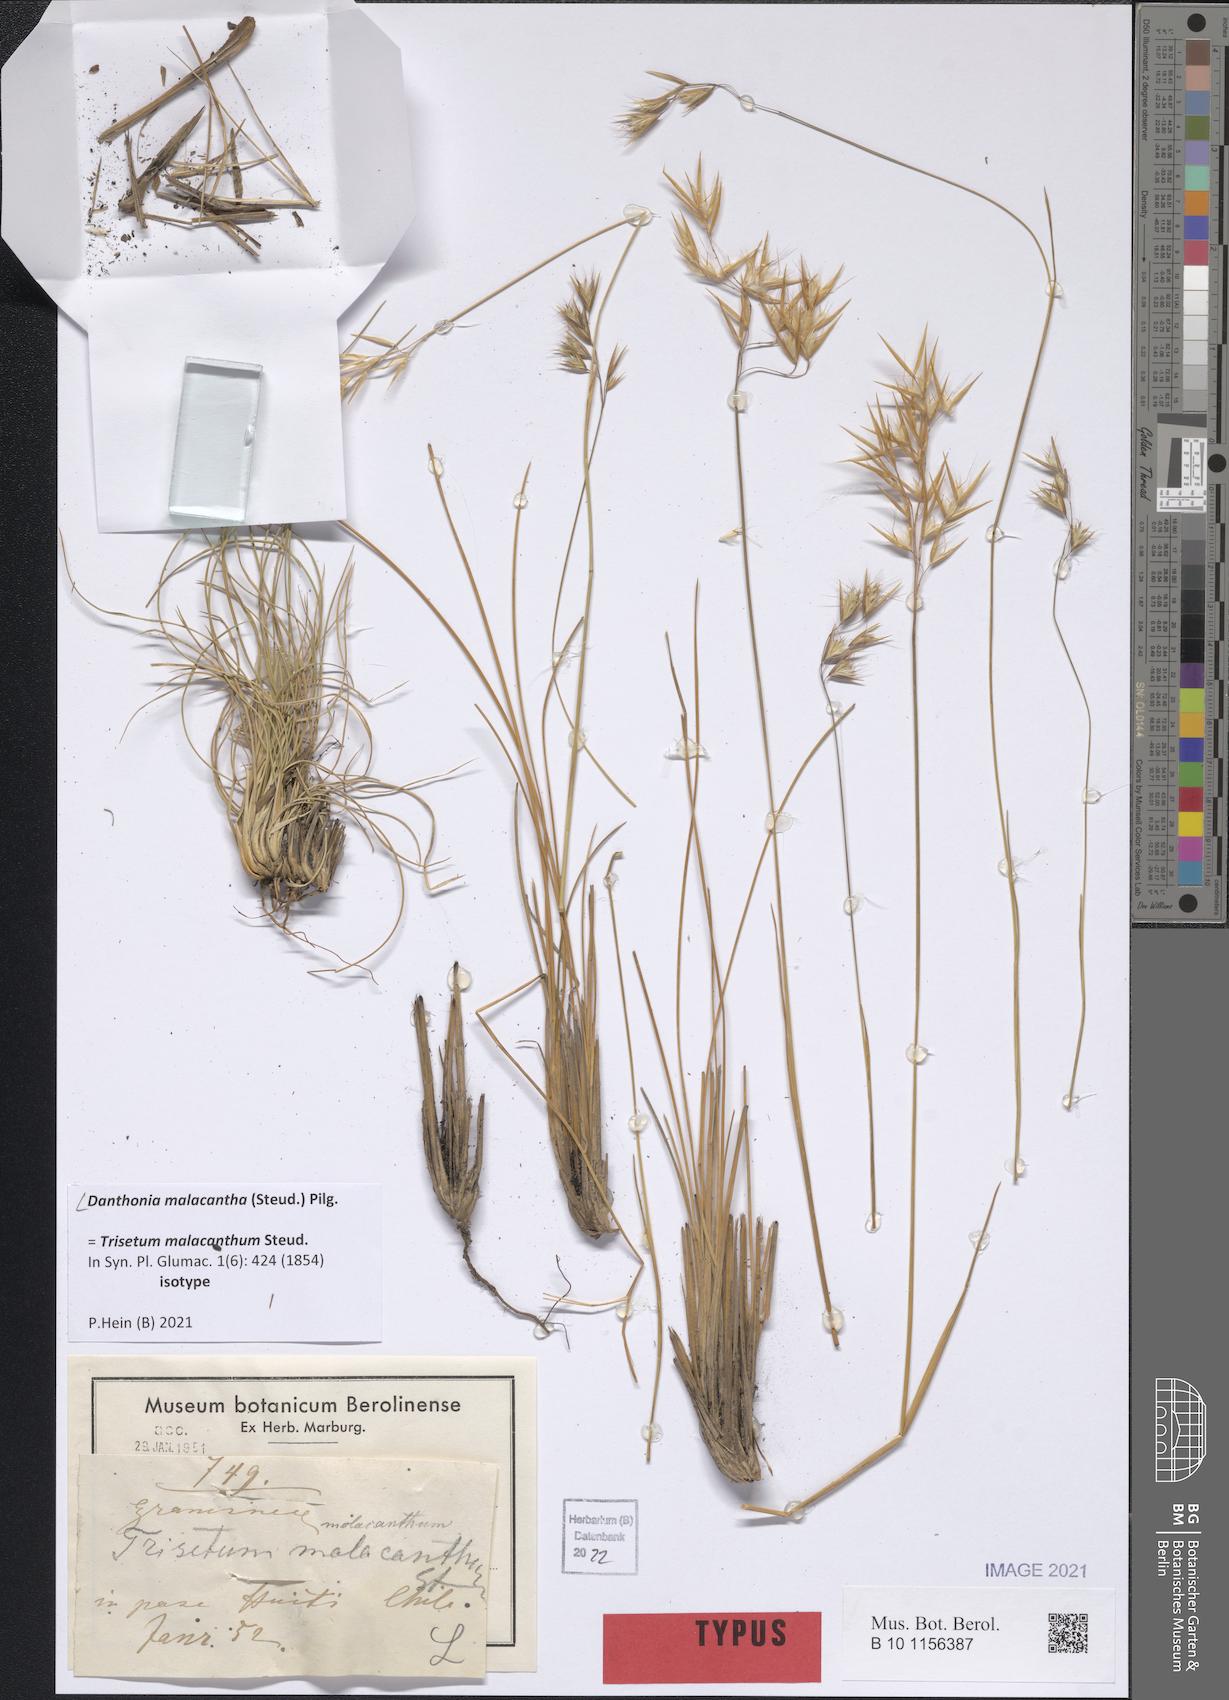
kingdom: Plantae
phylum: Tracheophyta
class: Liliopsida
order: Poales
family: Poaceae
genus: Danthonia
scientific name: Danthonia malacantha
